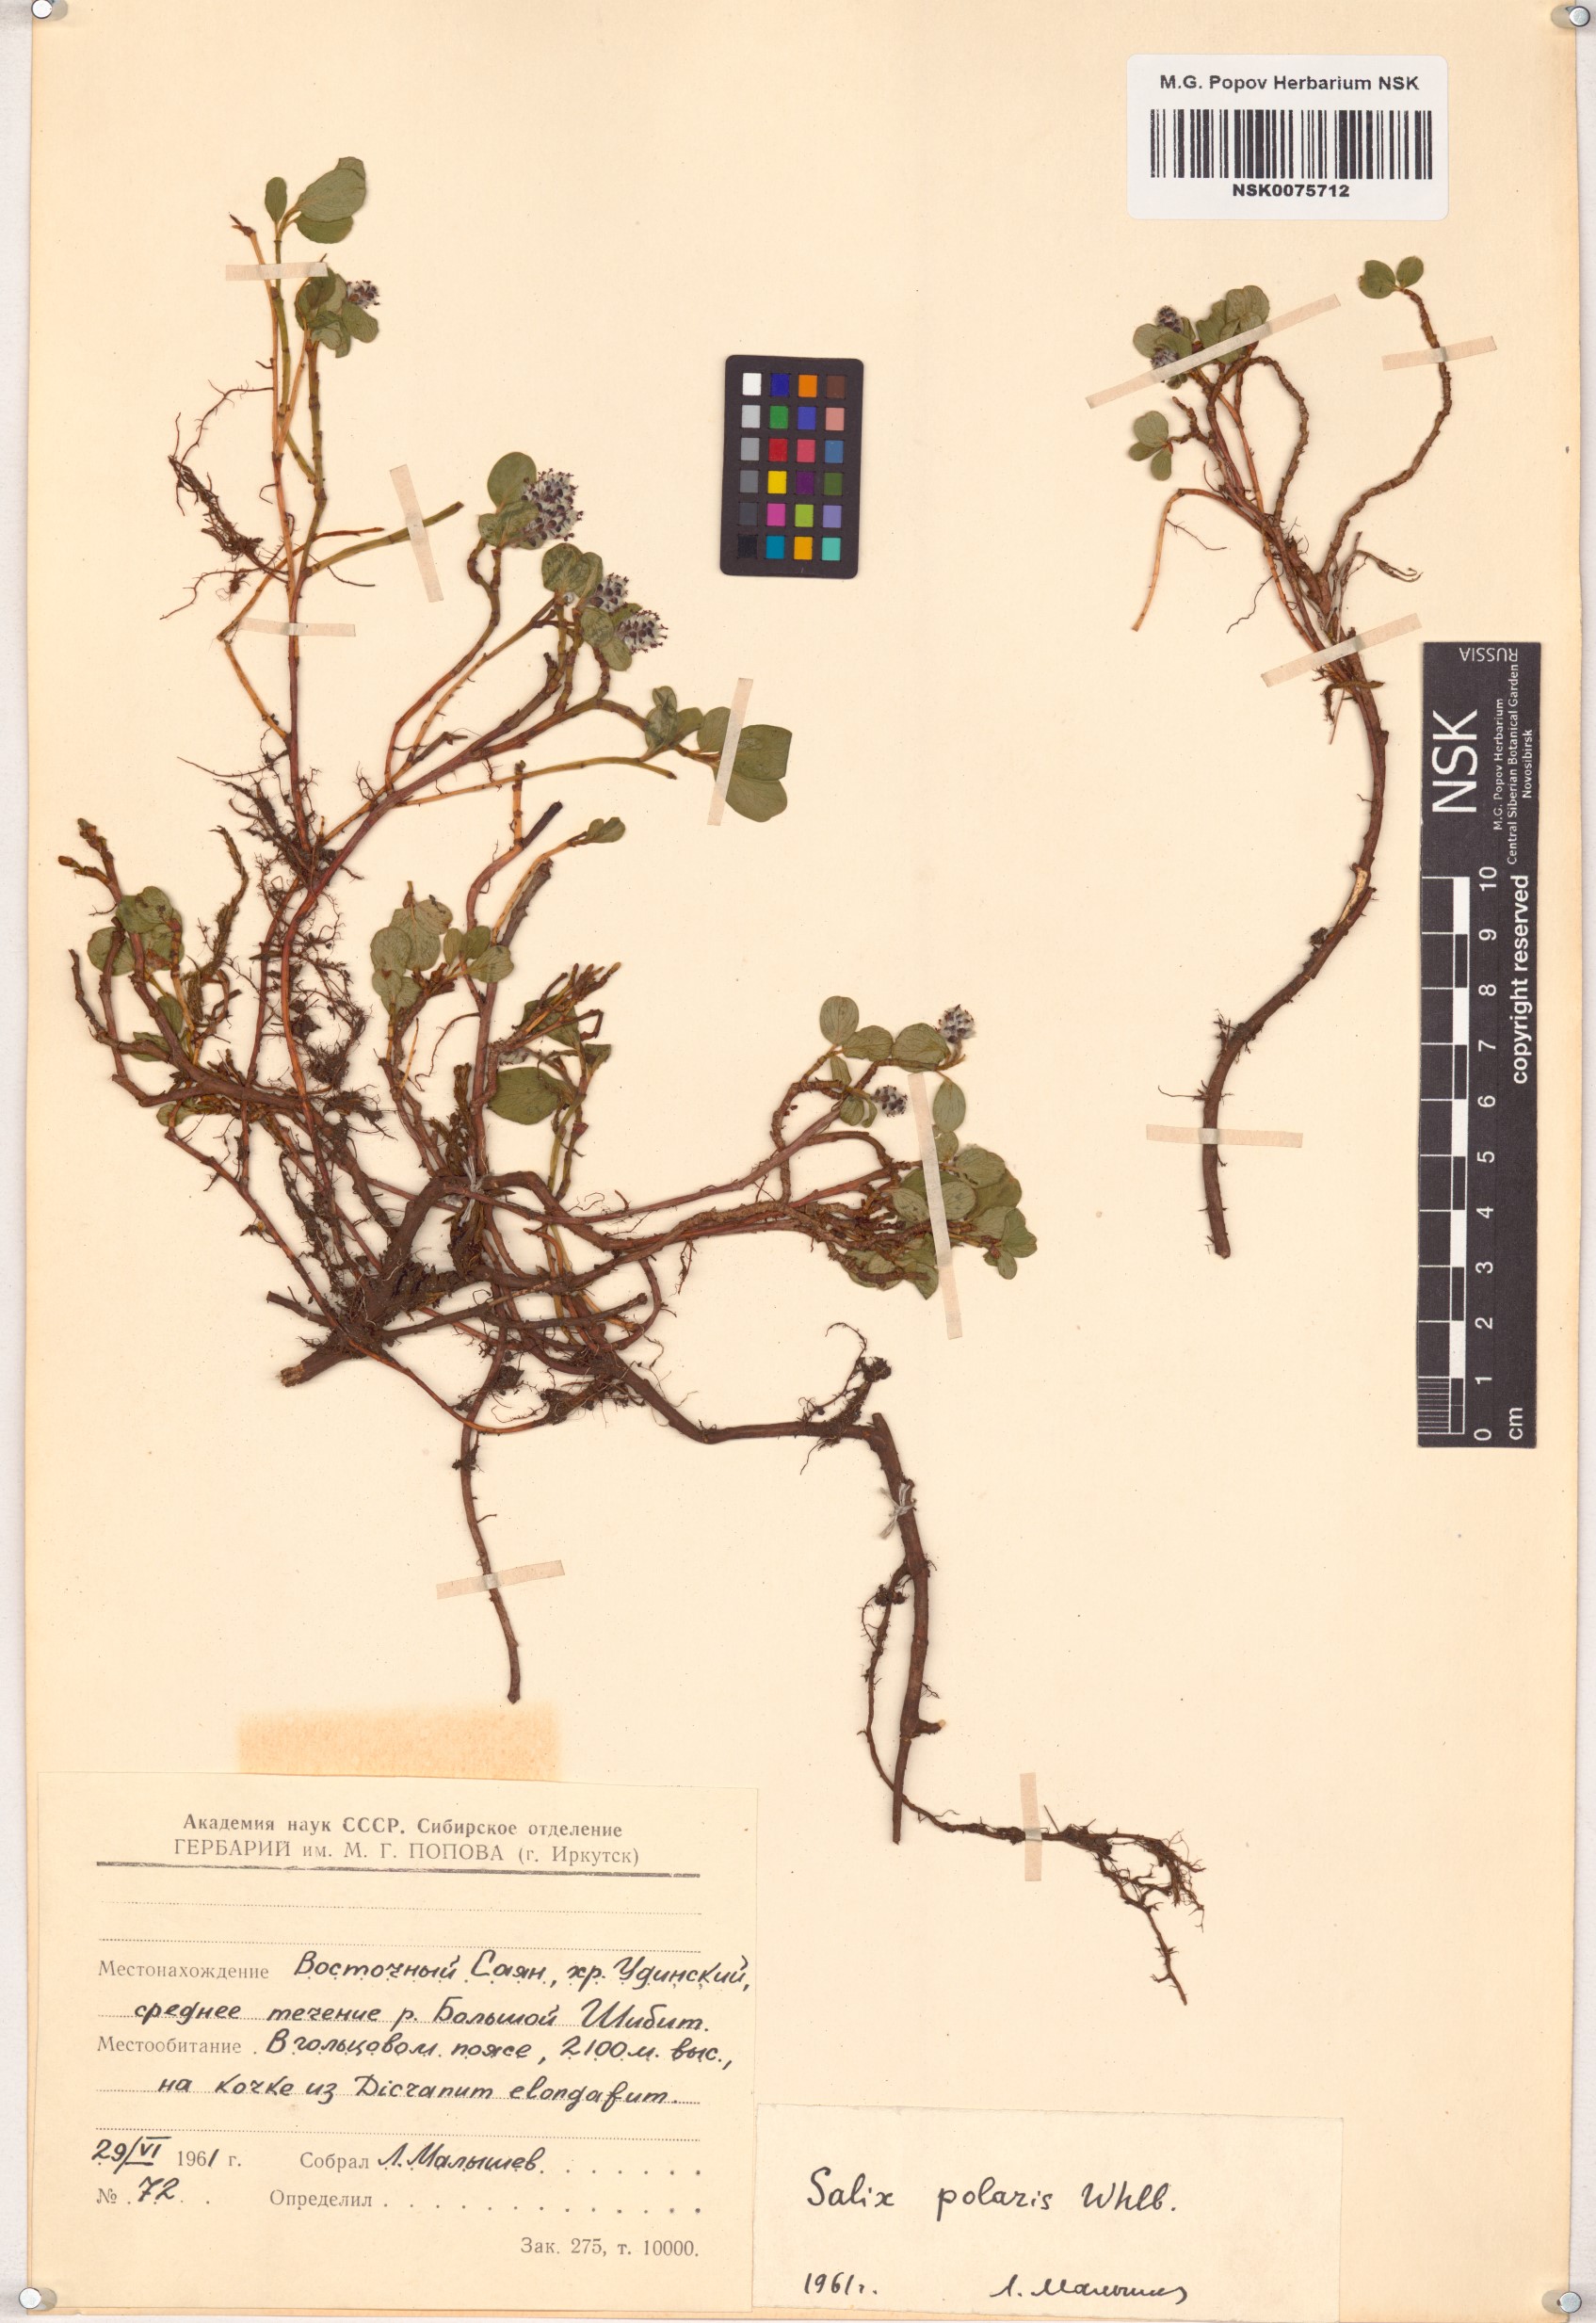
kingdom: Plantae
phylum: Tracheophyta
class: Magnoliopsida
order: Malpighiales
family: Salicaceae
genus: Salix
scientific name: Salix polaris
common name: Polar willow
